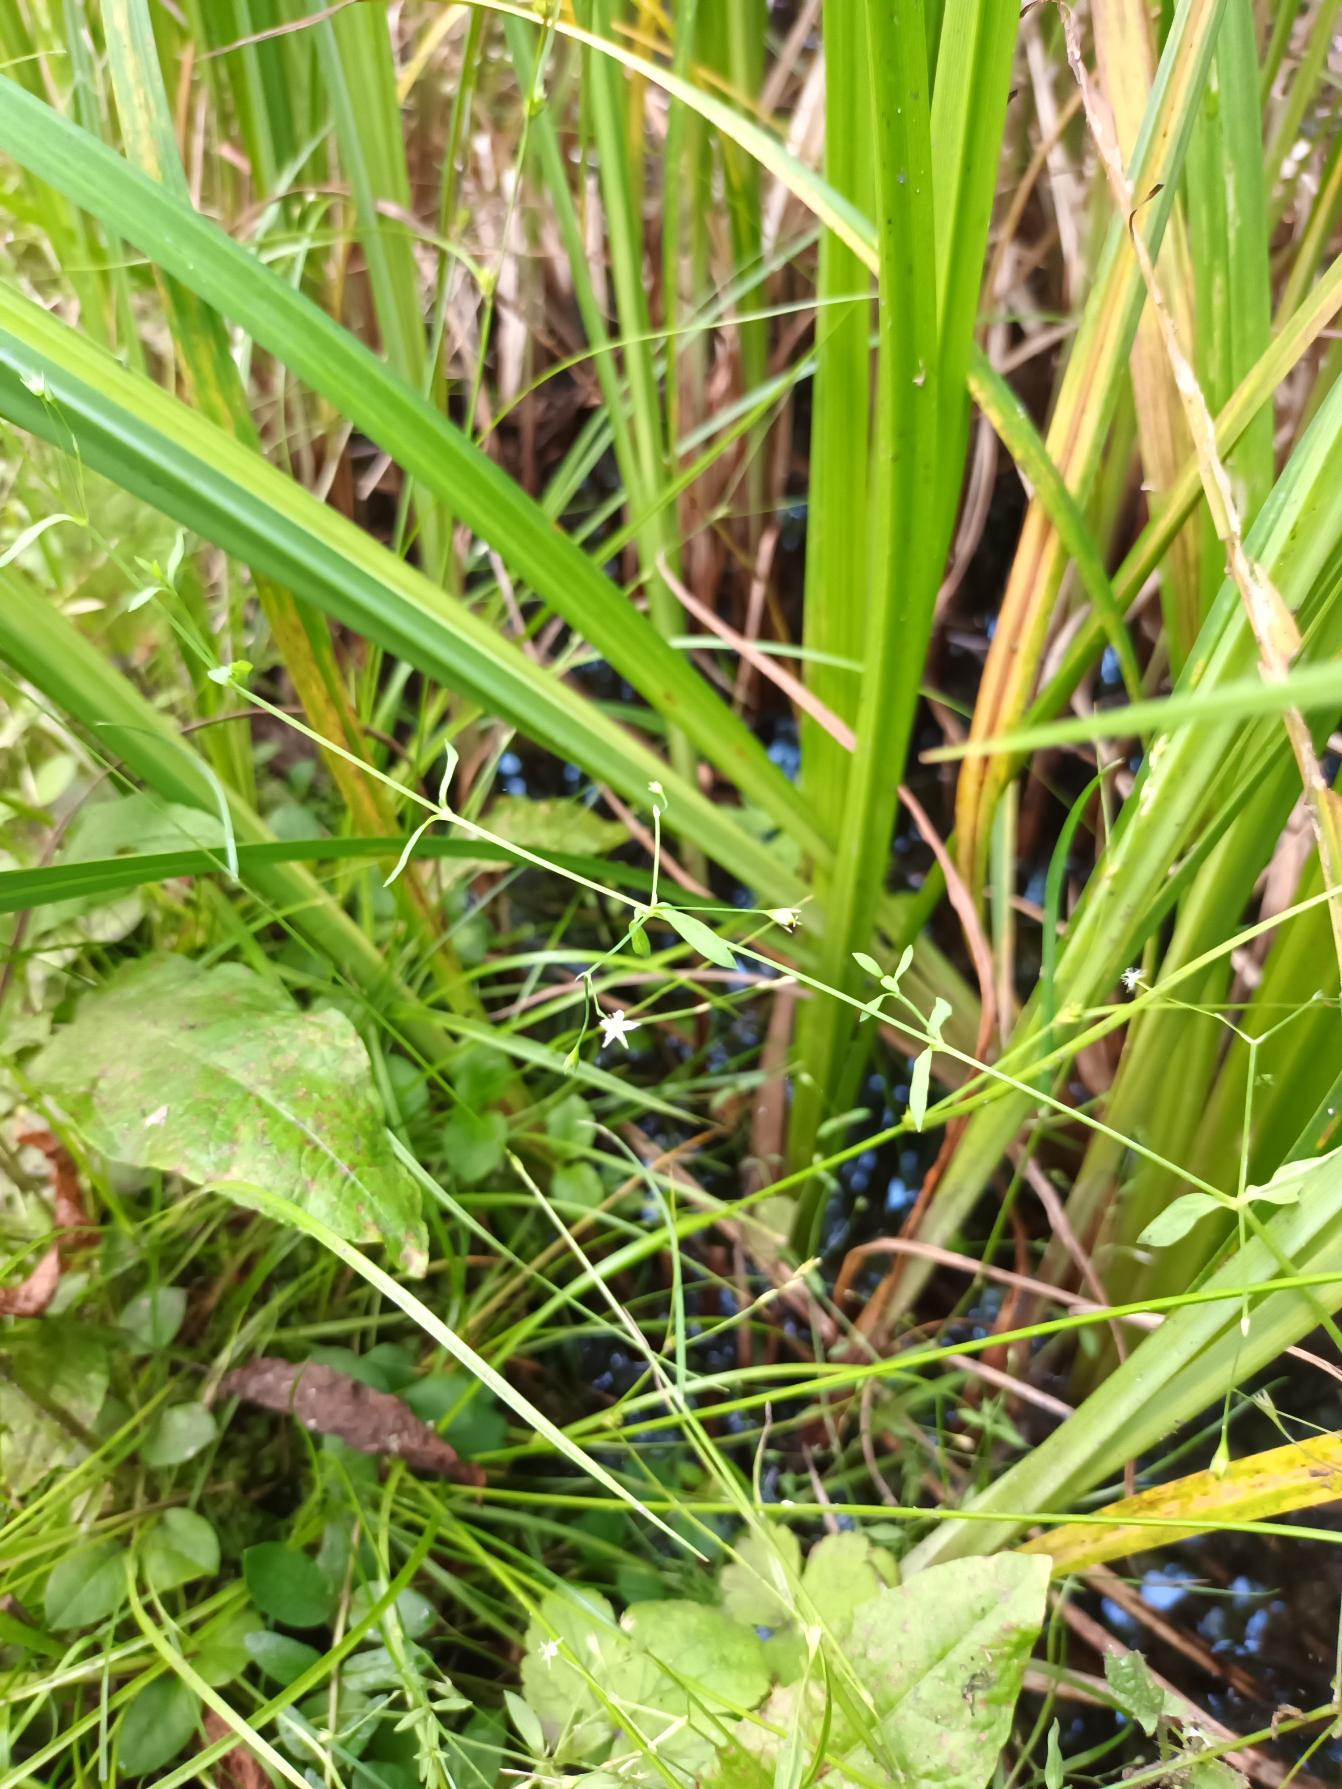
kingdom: Plantae
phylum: Tracheophyta
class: Magnoliopsida
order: Caryophyllales
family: Caryophyllaceae
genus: Stellaria
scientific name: Stellaria alsine
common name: Sump-fladstjerne
